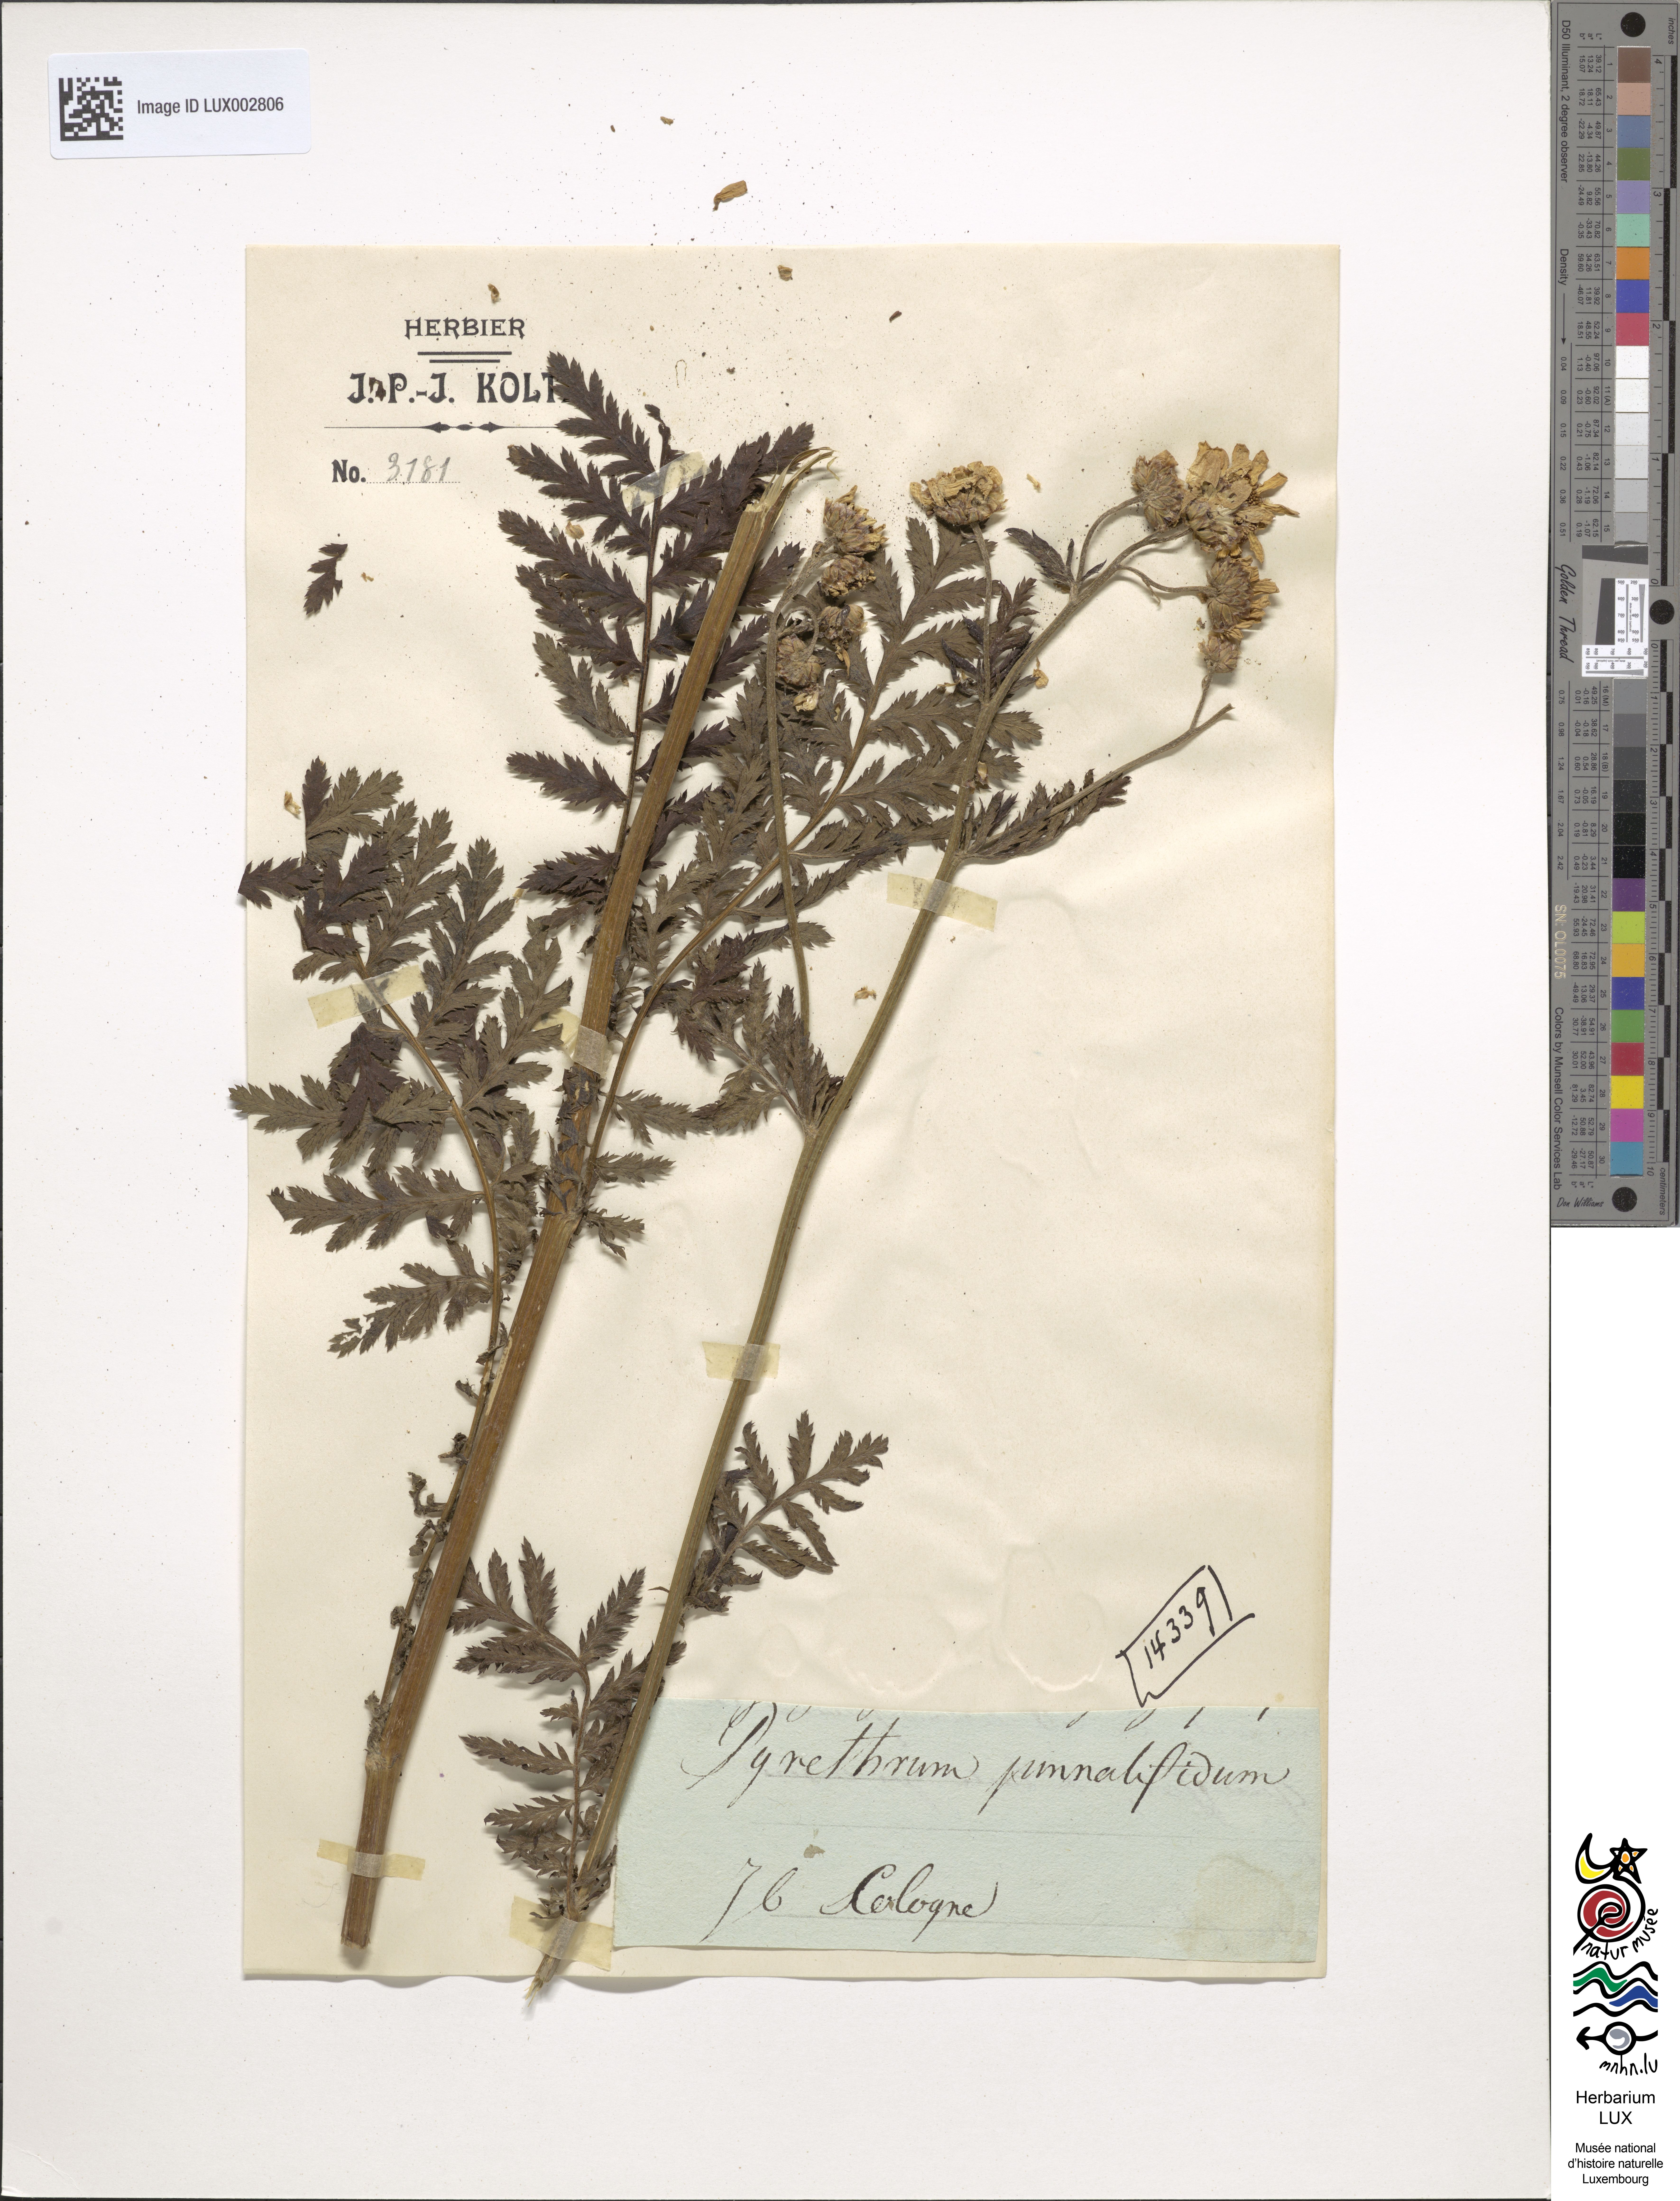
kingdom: Plantae
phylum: Tracheophyta
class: Magnoliopsida
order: Asterales
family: Asteraceae
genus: Argyranthemum
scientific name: Argyranthemum pinnatifidum
